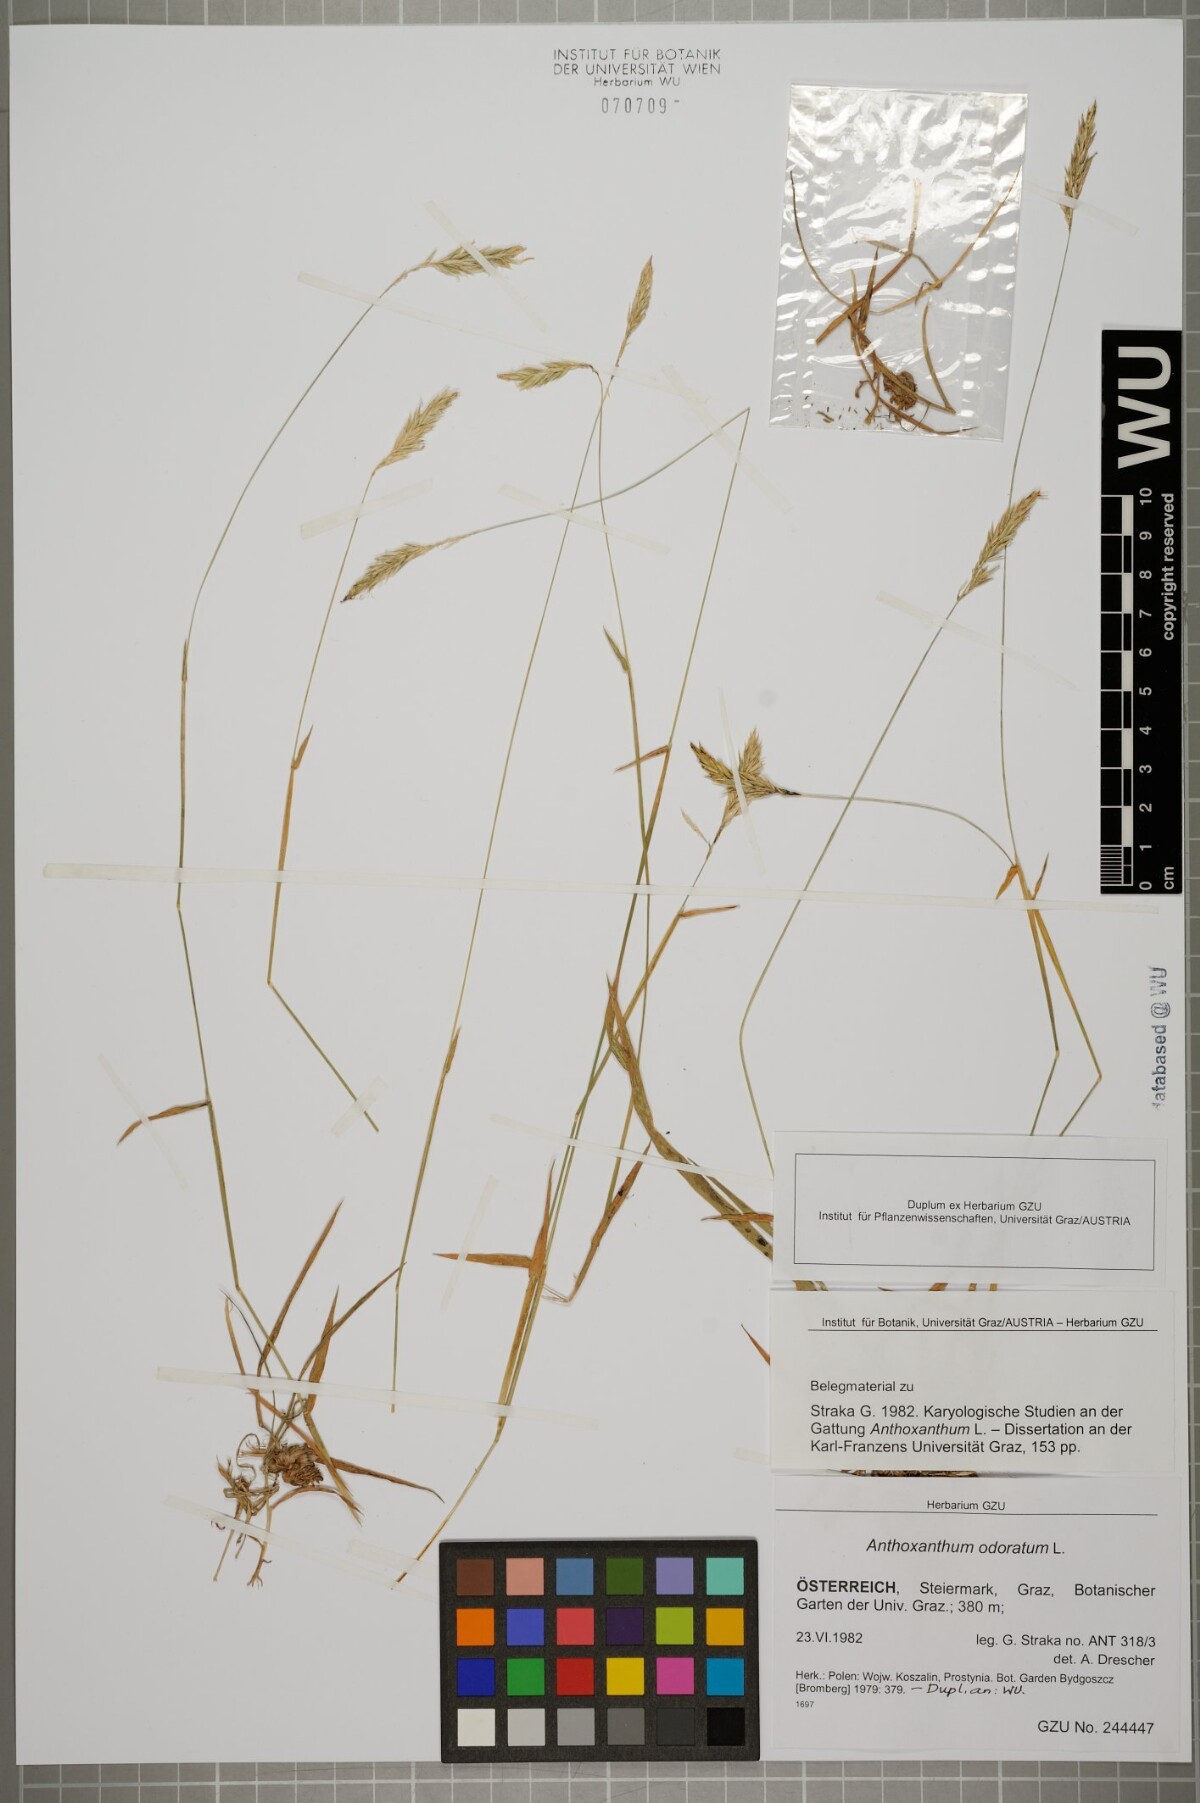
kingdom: Plantae
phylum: Tracheophyta
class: Liliopsida
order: Poales
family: Poaceae
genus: Anthoxanthum
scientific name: Anthoxanthum odoratum
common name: Sweet vernalgrass
